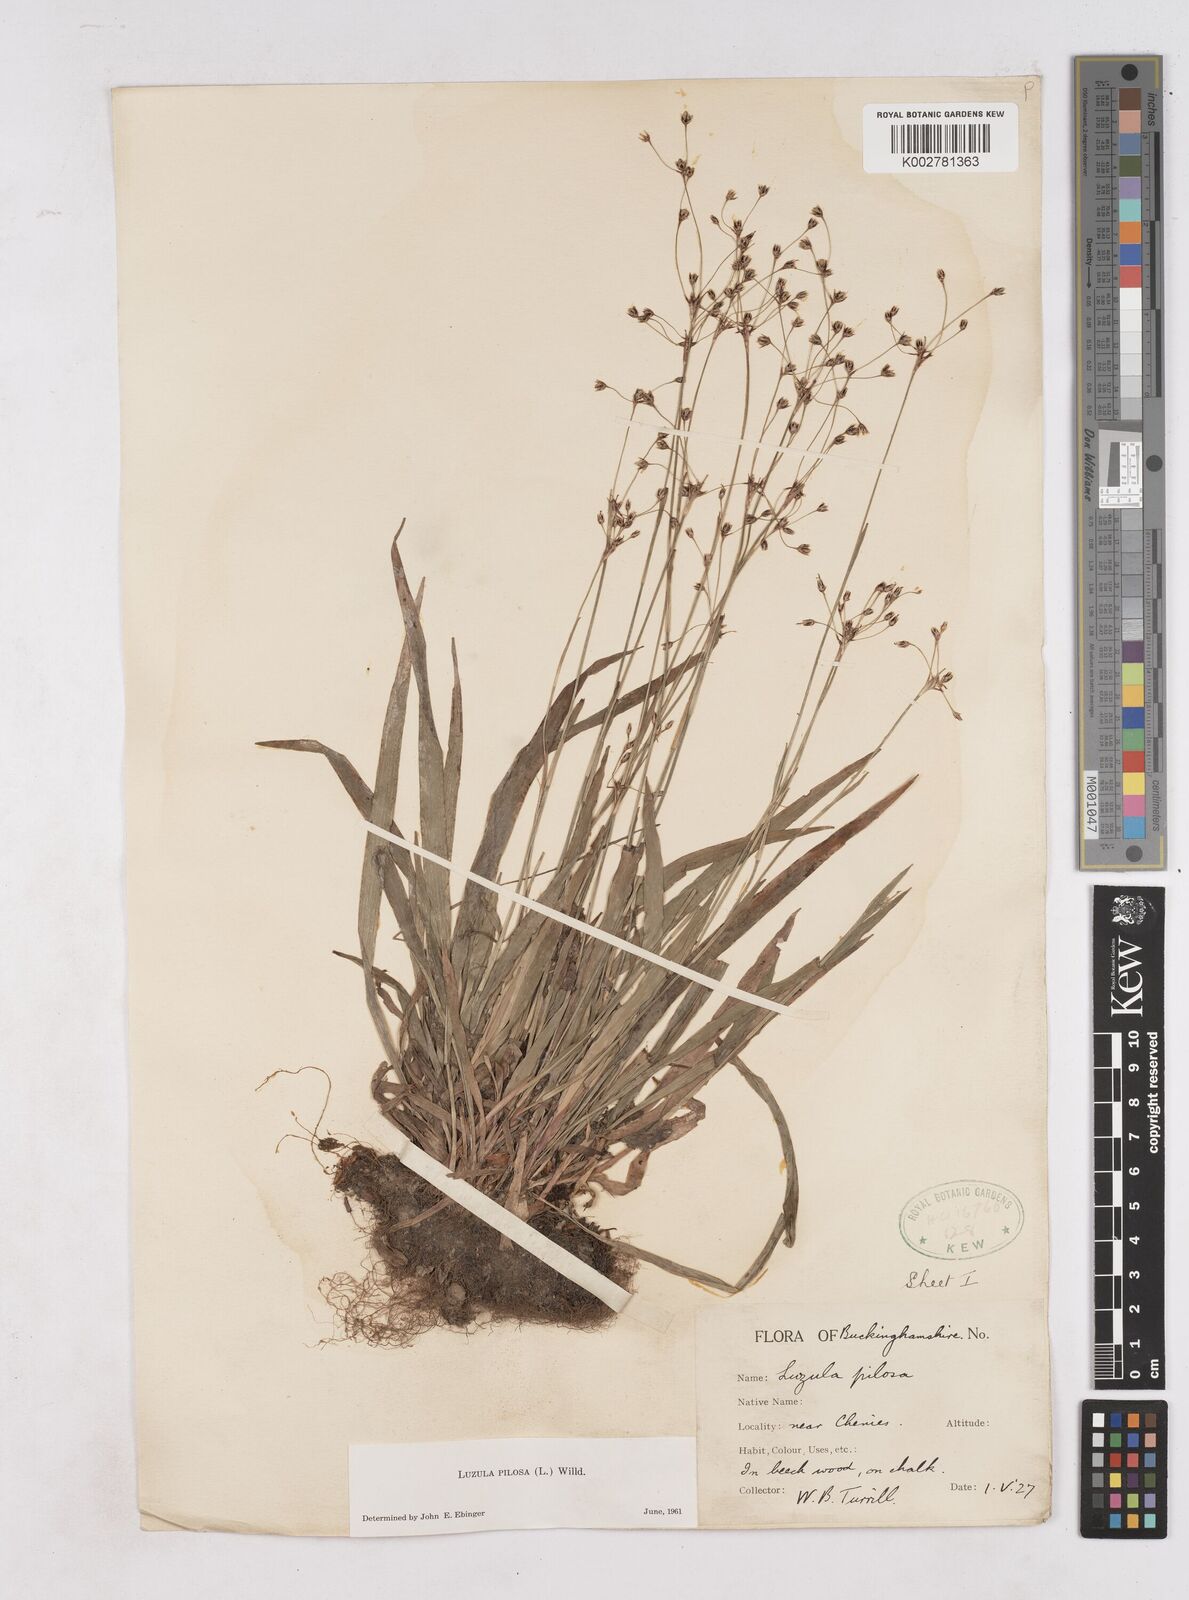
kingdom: Plantae
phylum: Tracheophyta
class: Liliopsida
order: Poales
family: Juncaceae
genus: Luzula
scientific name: Luzula pilosa
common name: Hairy wood-rush
